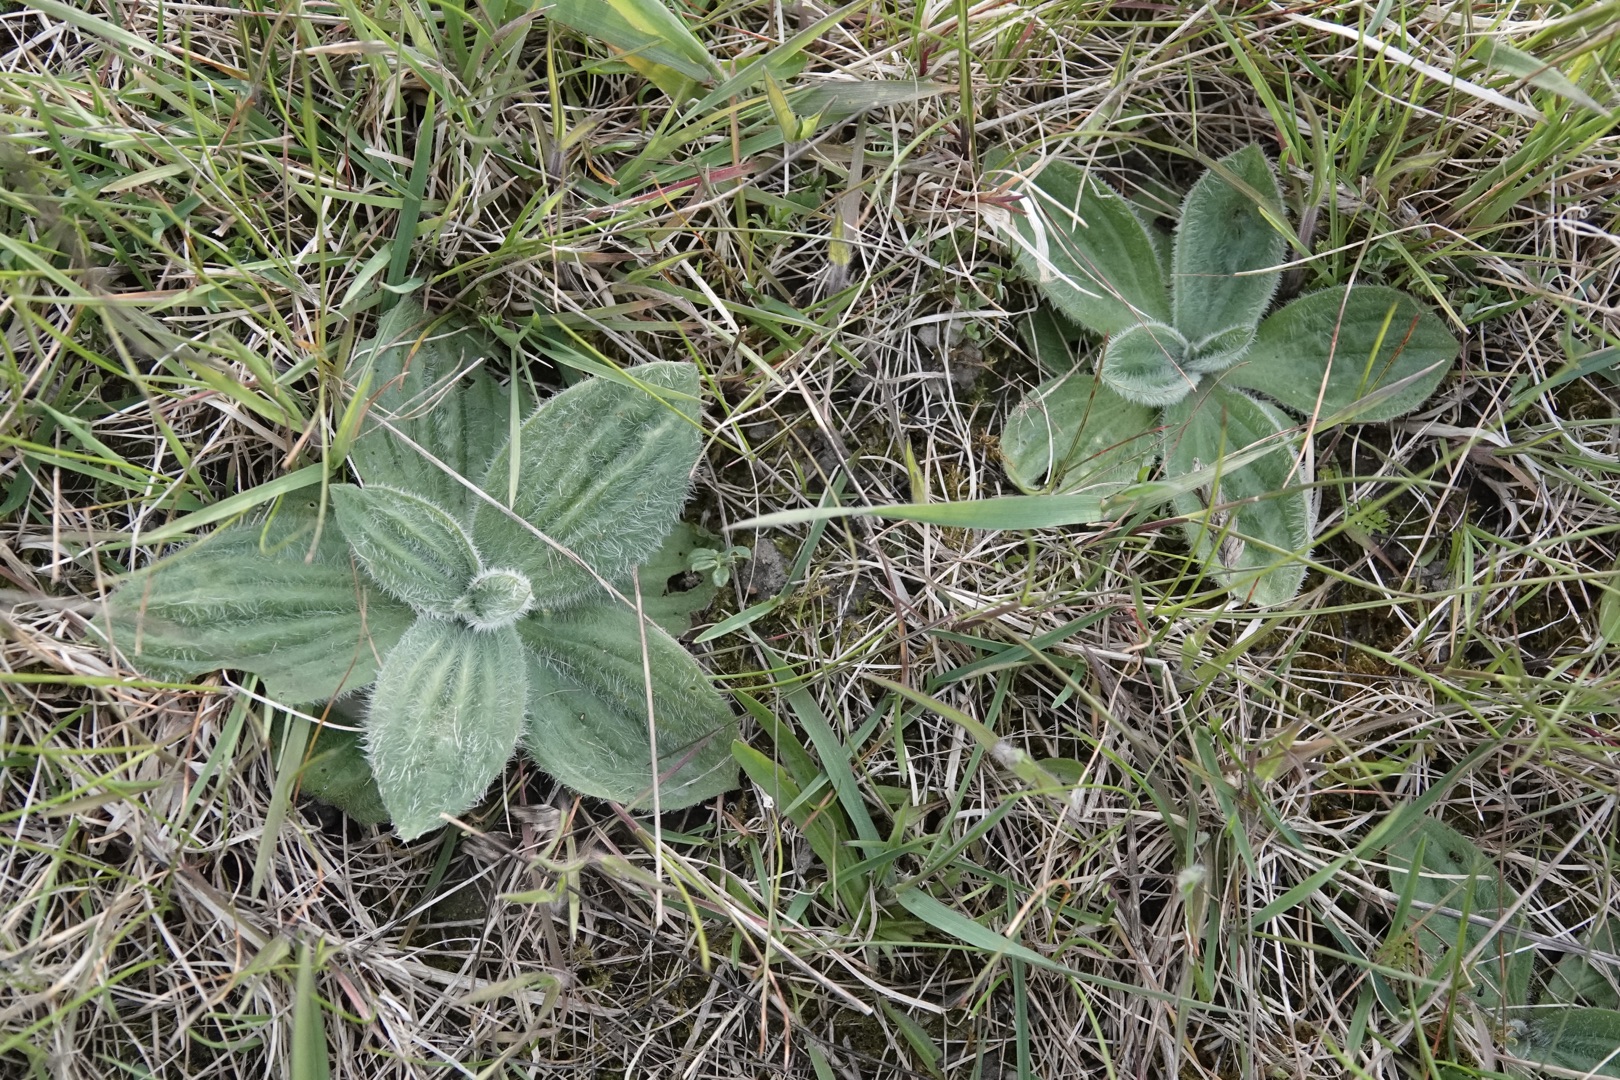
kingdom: Plantae
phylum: Tracheophyta
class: Magnoliopsida
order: Lamiales
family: Plantaginaceae
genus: Plantago
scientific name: Plantago media
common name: Dunet vejbred
